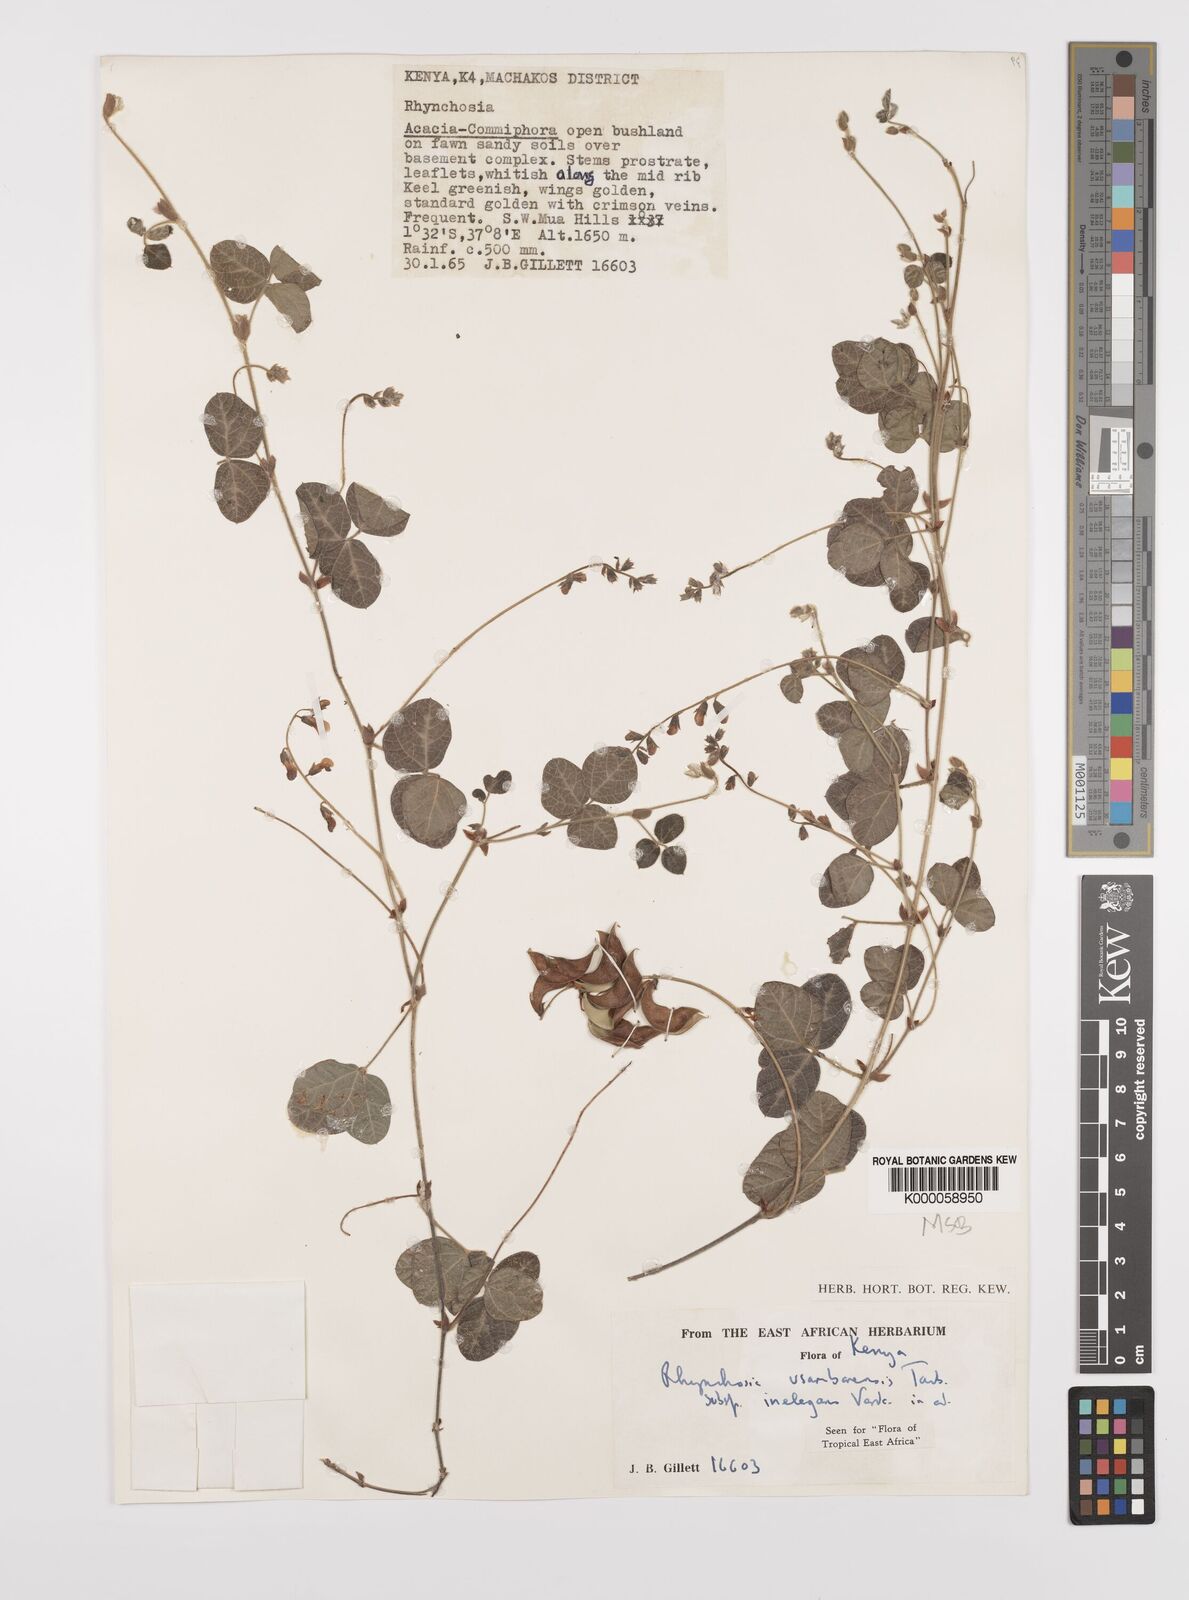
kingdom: Plantae
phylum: Tracheophyta
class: Magnoliopsida
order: Fabales
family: Fabaceae
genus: Rhynchosia
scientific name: Rhynchosia usambarensis
